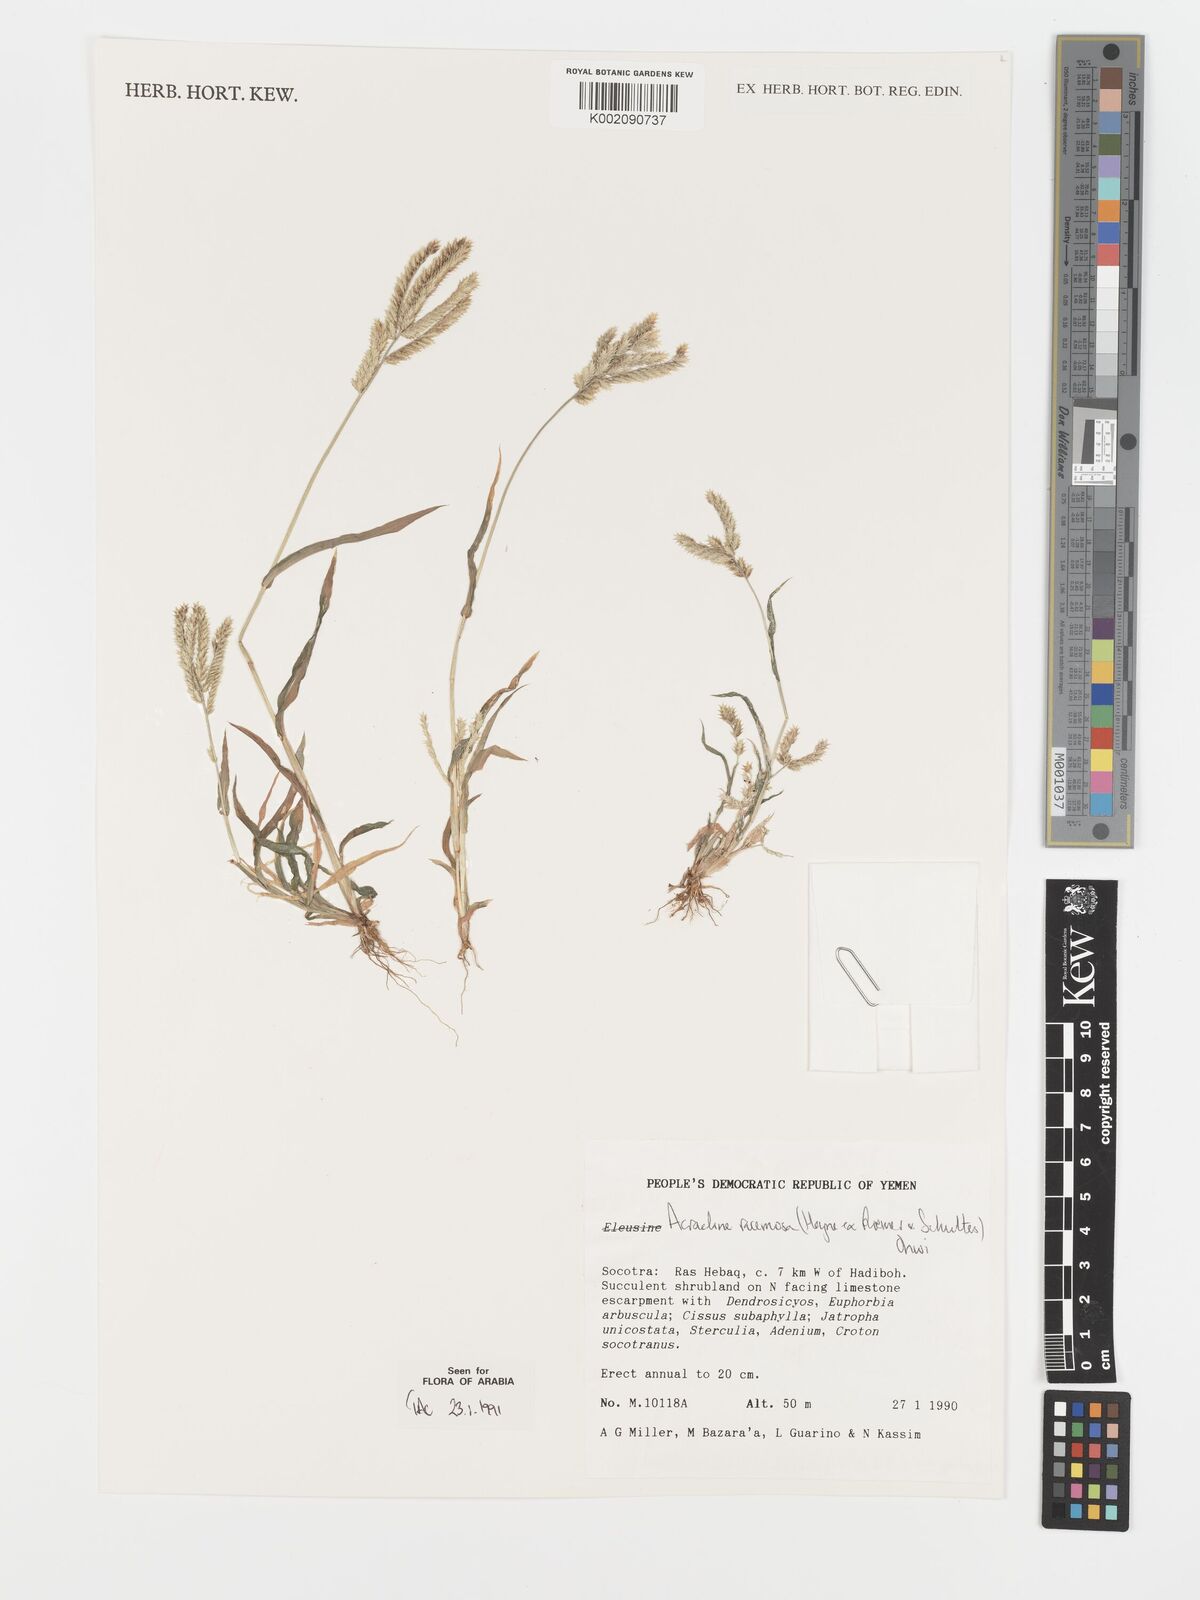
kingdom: Plantae
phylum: Tracheophyta
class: Liliopsida
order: Poales
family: Poaceae
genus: Acrachne
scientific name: Acrachne racemosa
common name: Goosegrass
